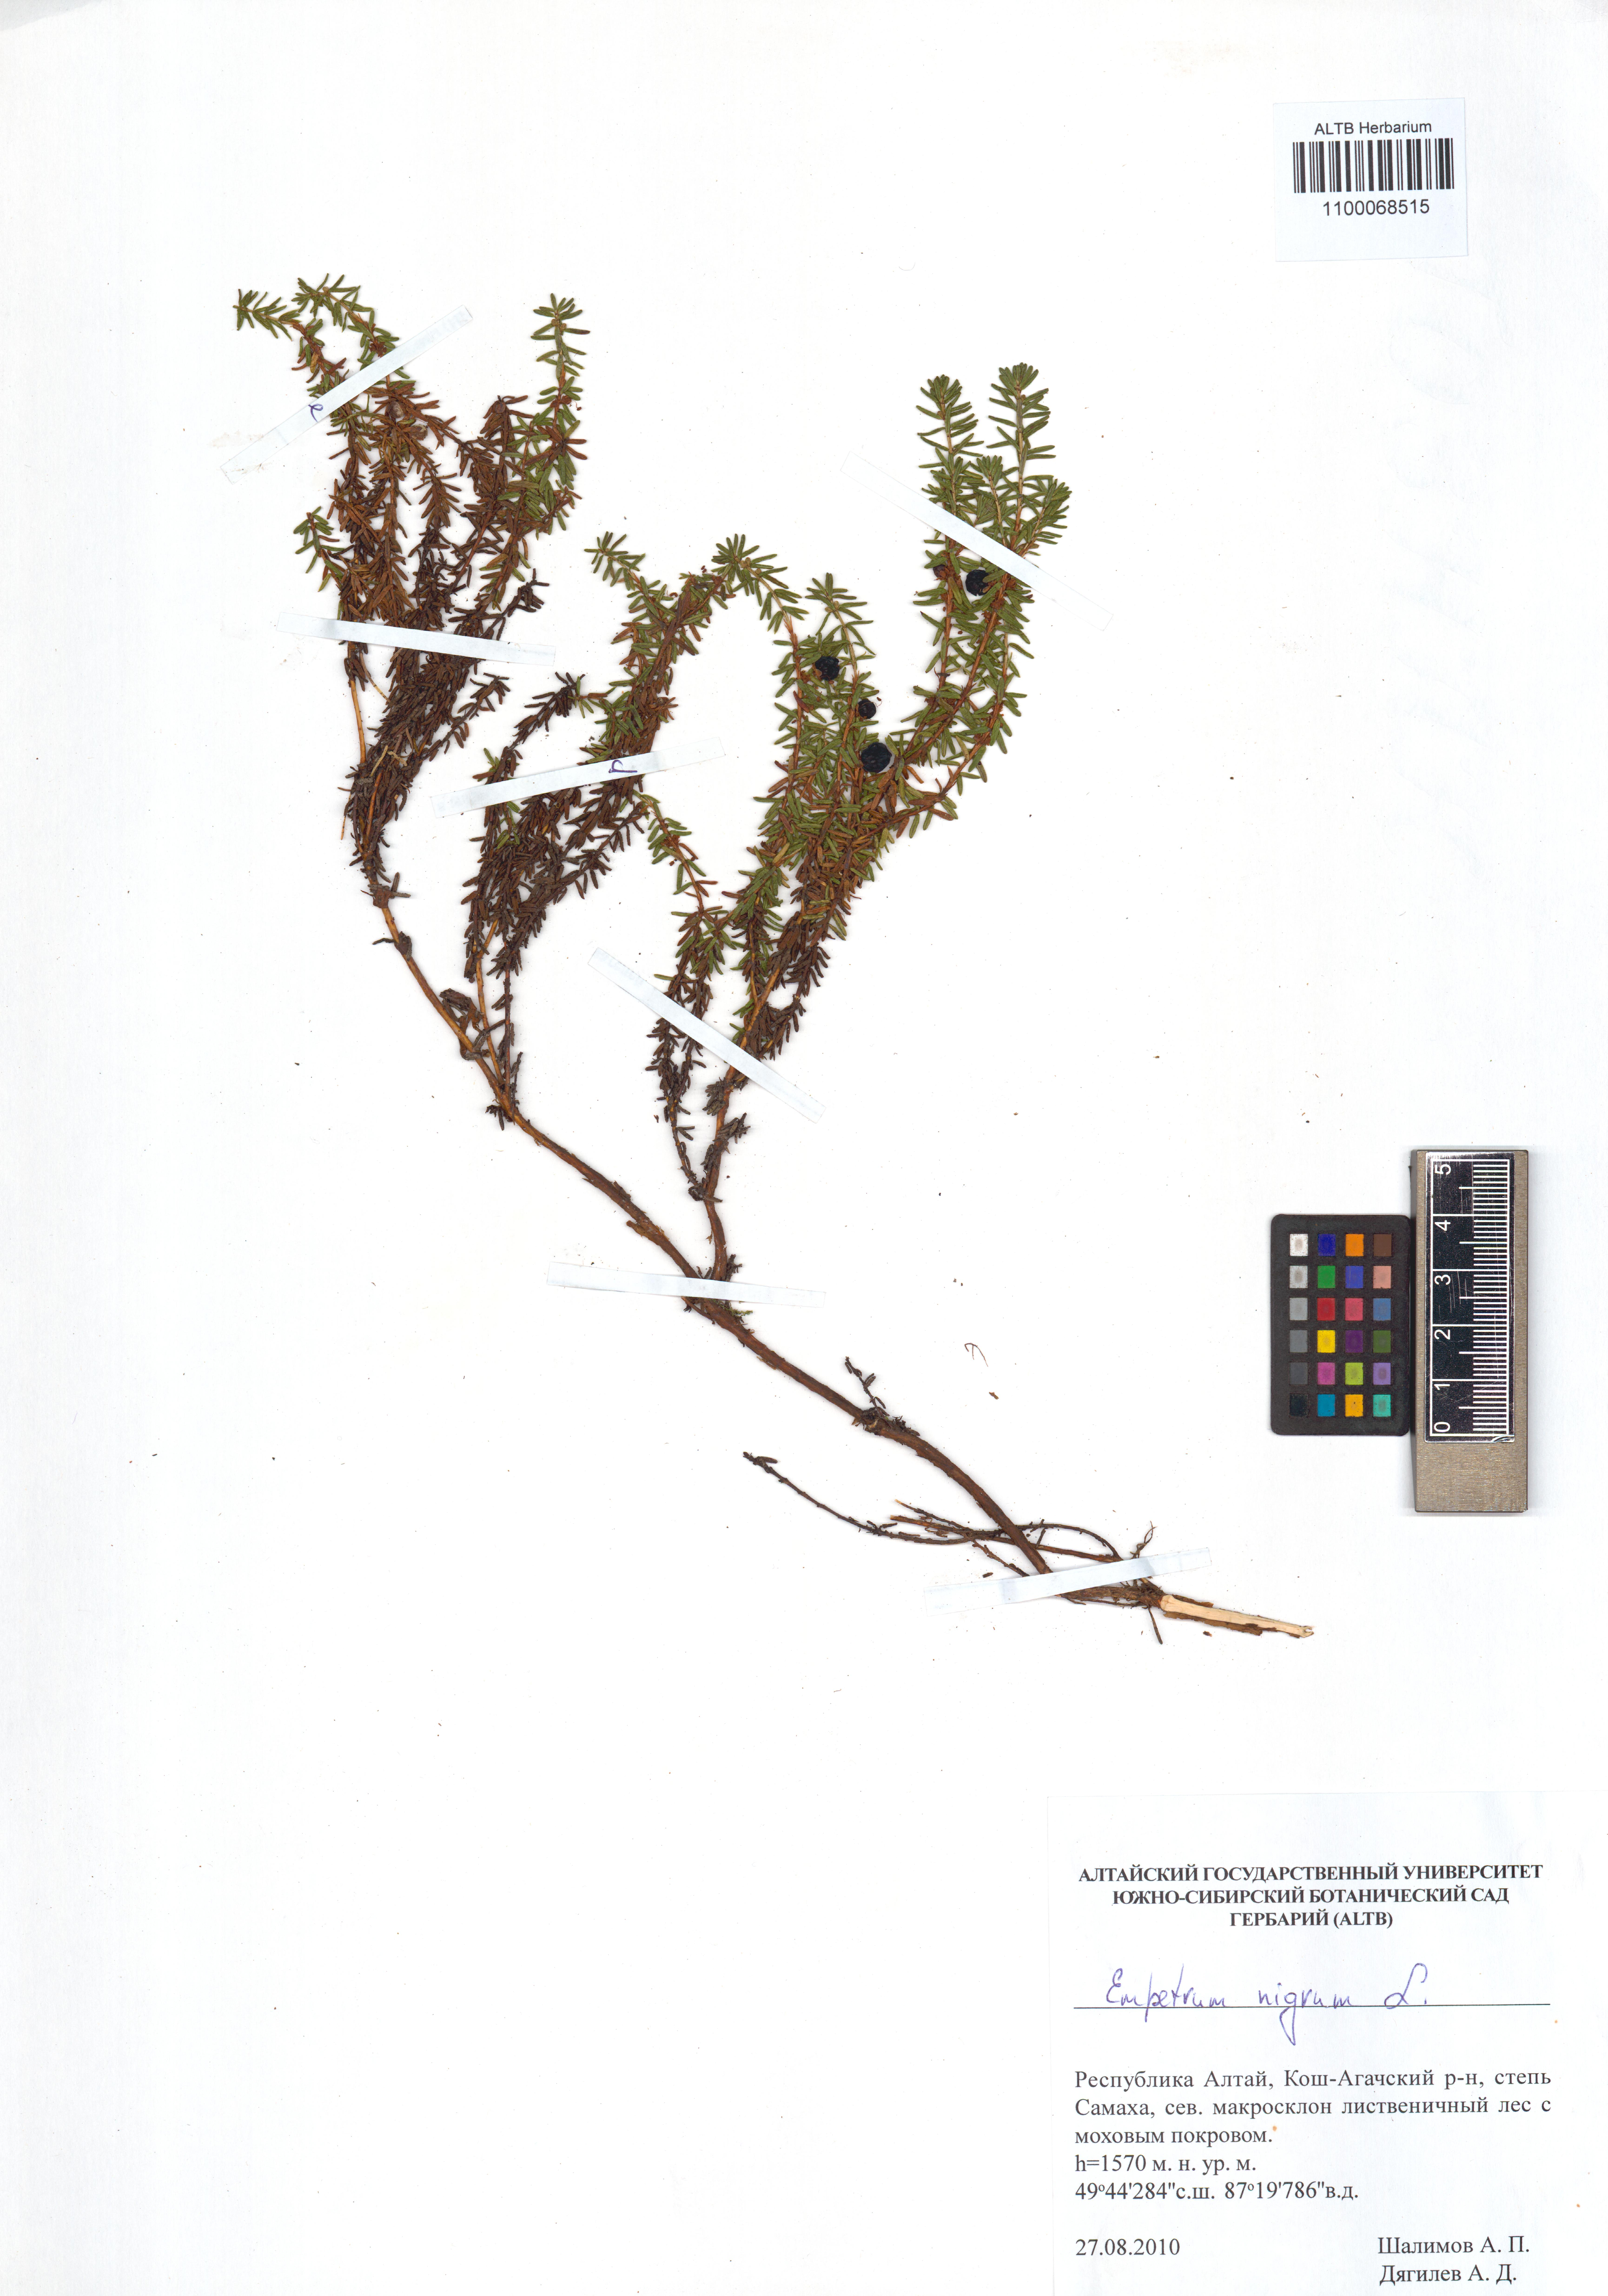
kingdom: Plantae
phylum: Tracheophyta
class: Magnoliopsida
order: Ericales
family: Ericaceae
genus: Empetrum
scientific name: Empetrum nigrum
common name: Black crowberry
